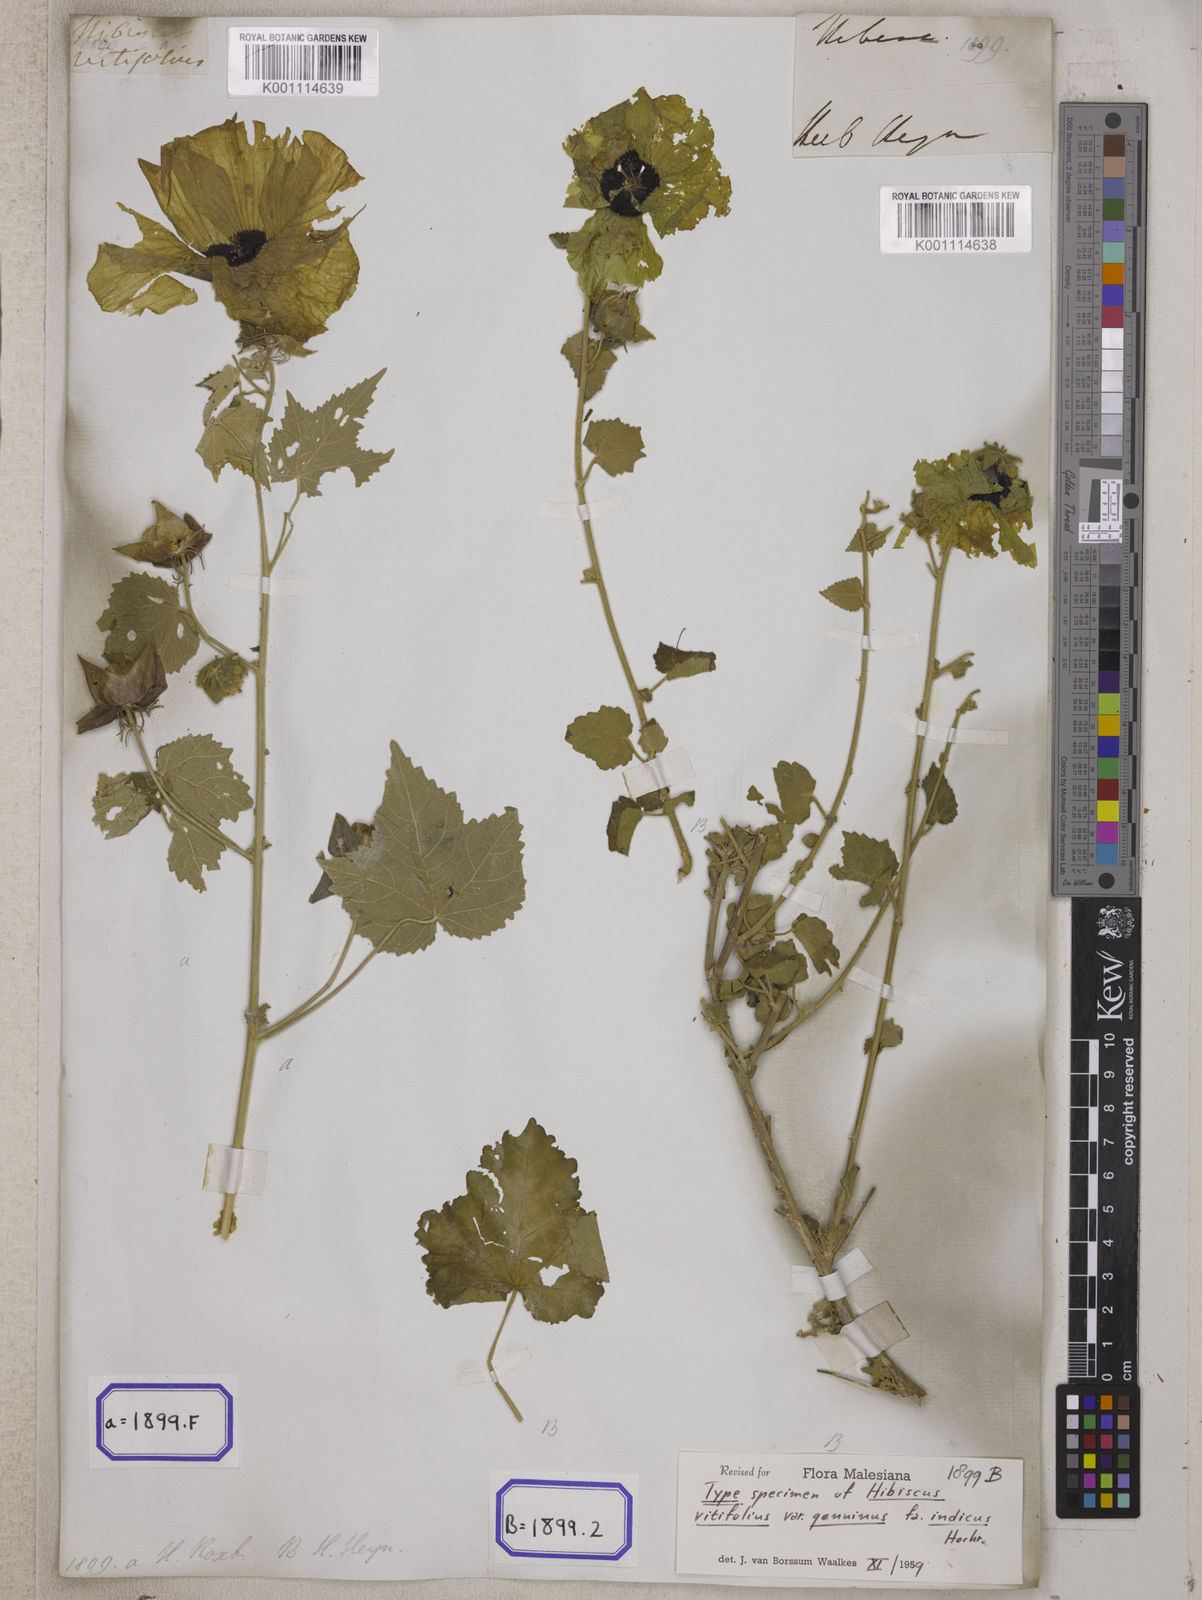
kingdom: Plantae
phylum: Tracheophyta
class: Magnoliopsida
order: Malvales
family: Malvaceae
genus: Hibiscus
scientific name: Hibiscus vitifolius
